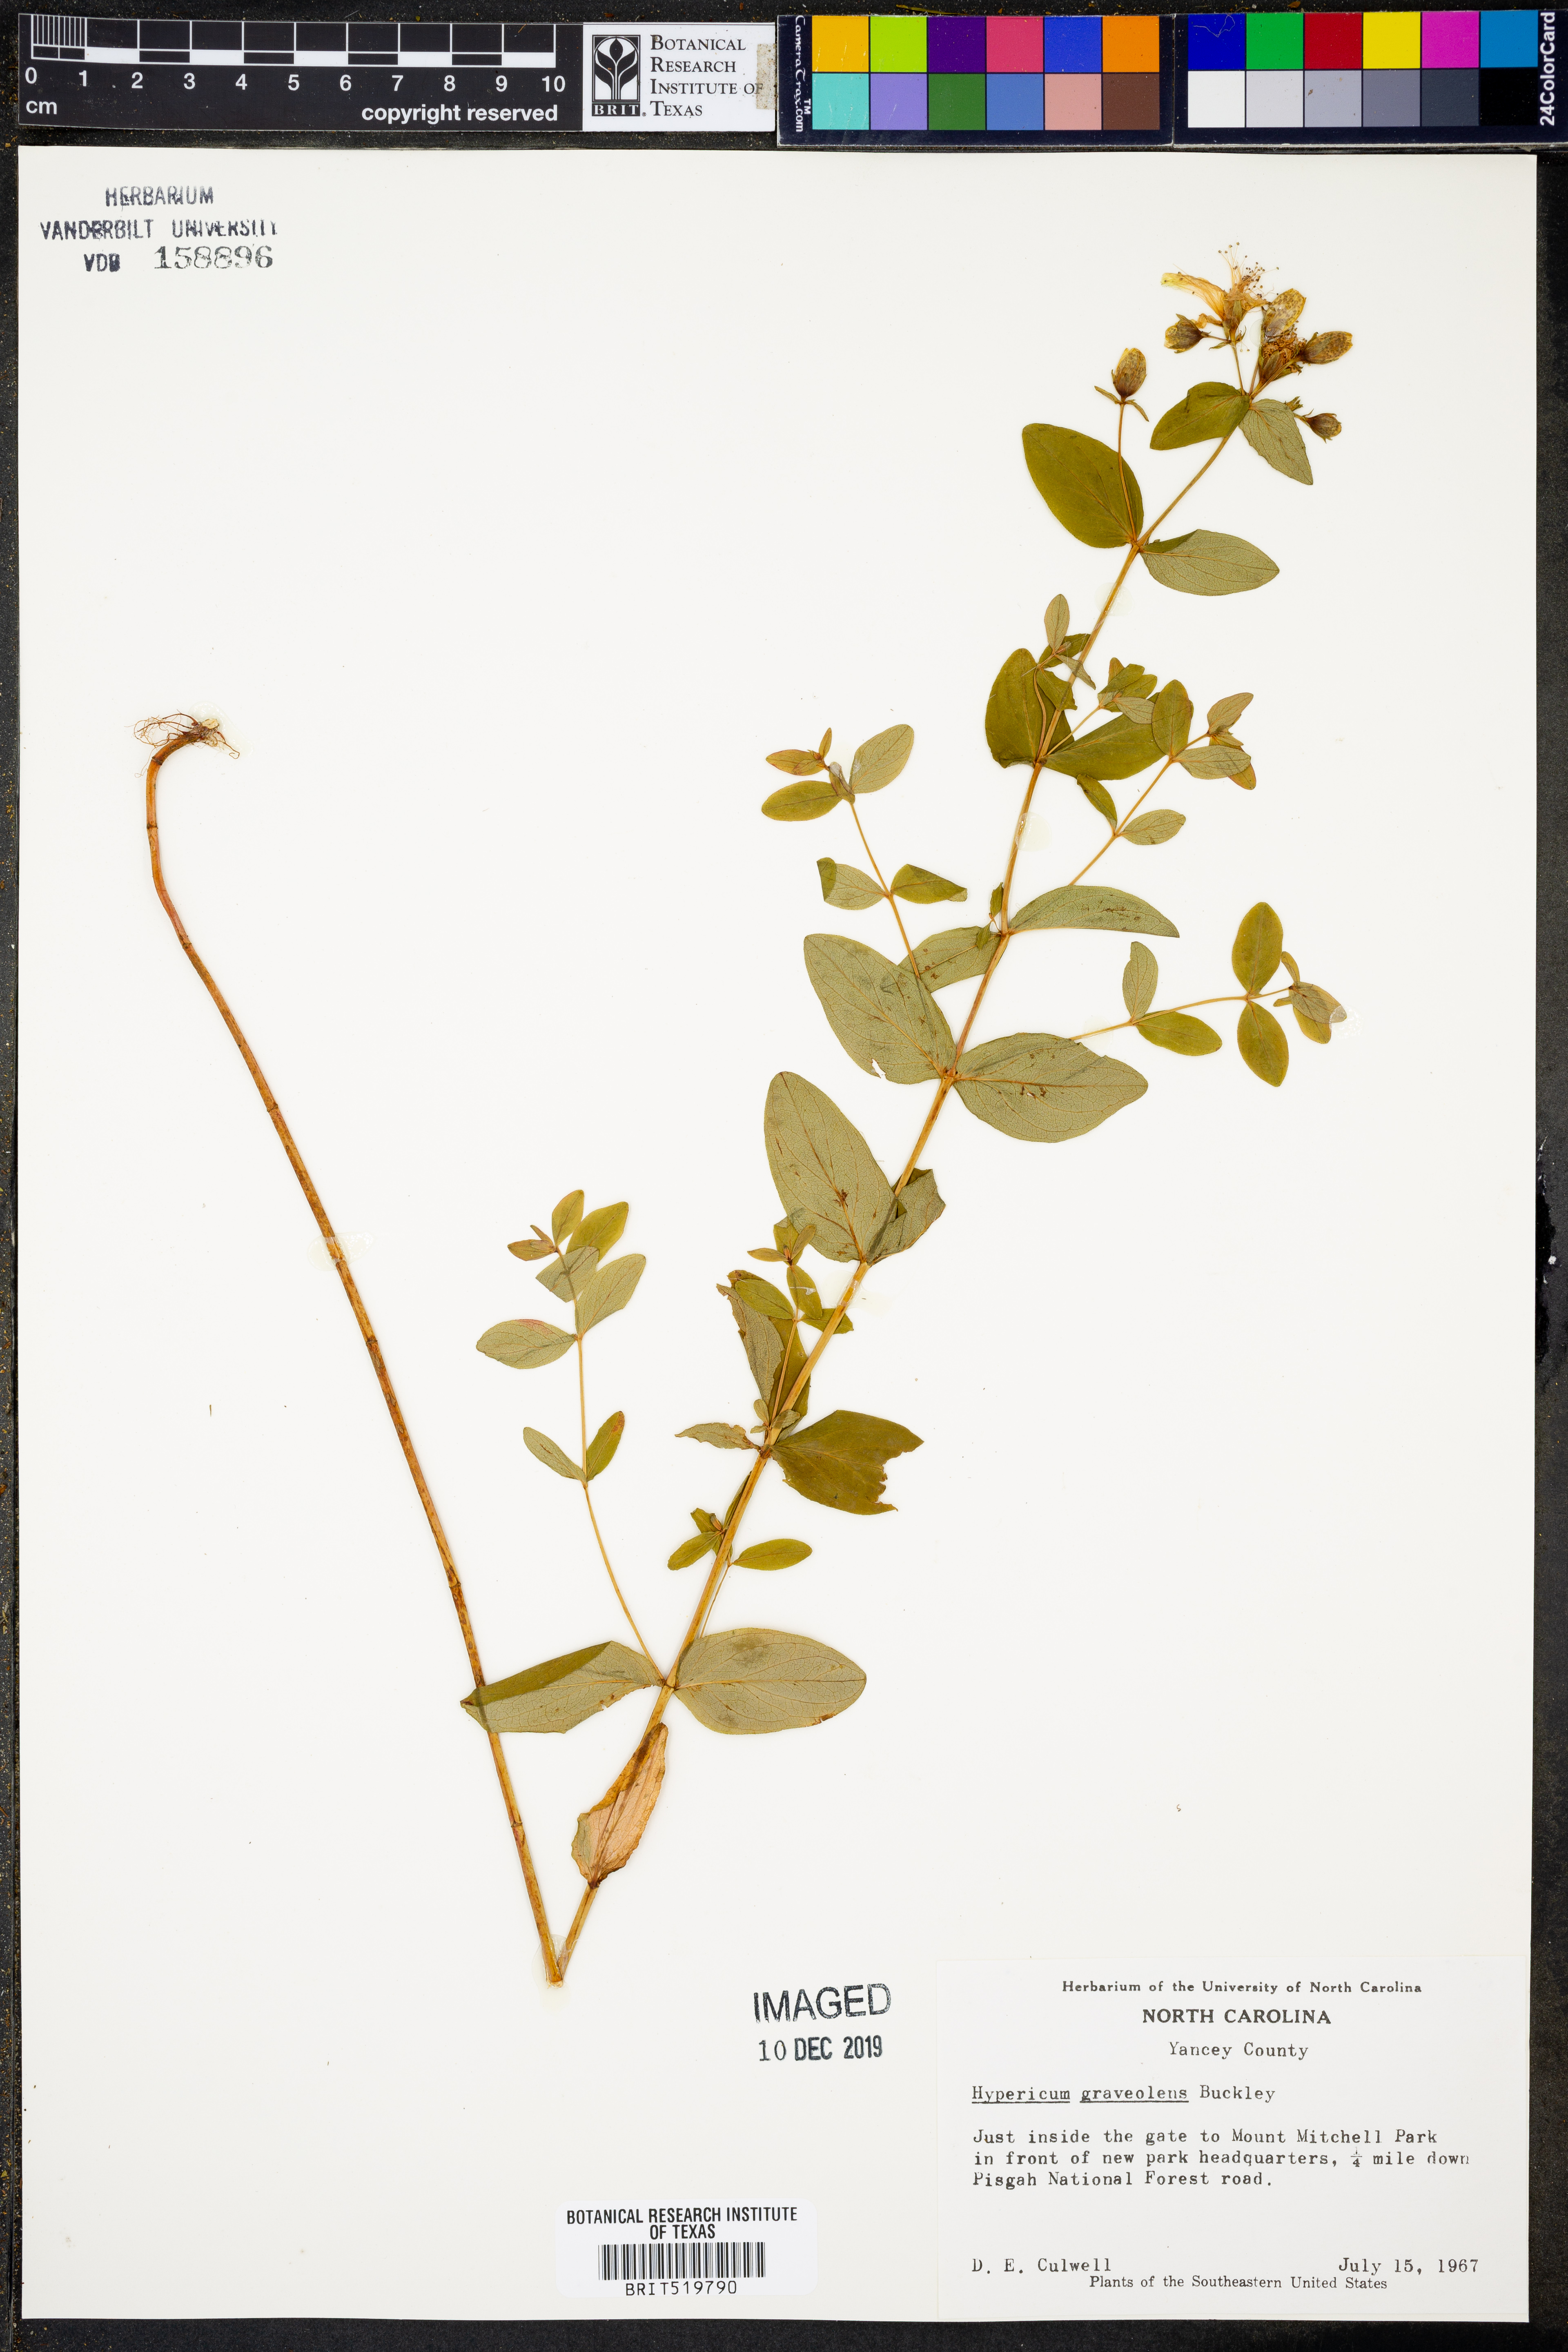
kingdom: Plantae
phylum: Tracheophyta
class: Magnoliopsida
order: Malpighiales
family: Hypericaceae
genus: Hypericum
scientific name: Hypericum graveolens
